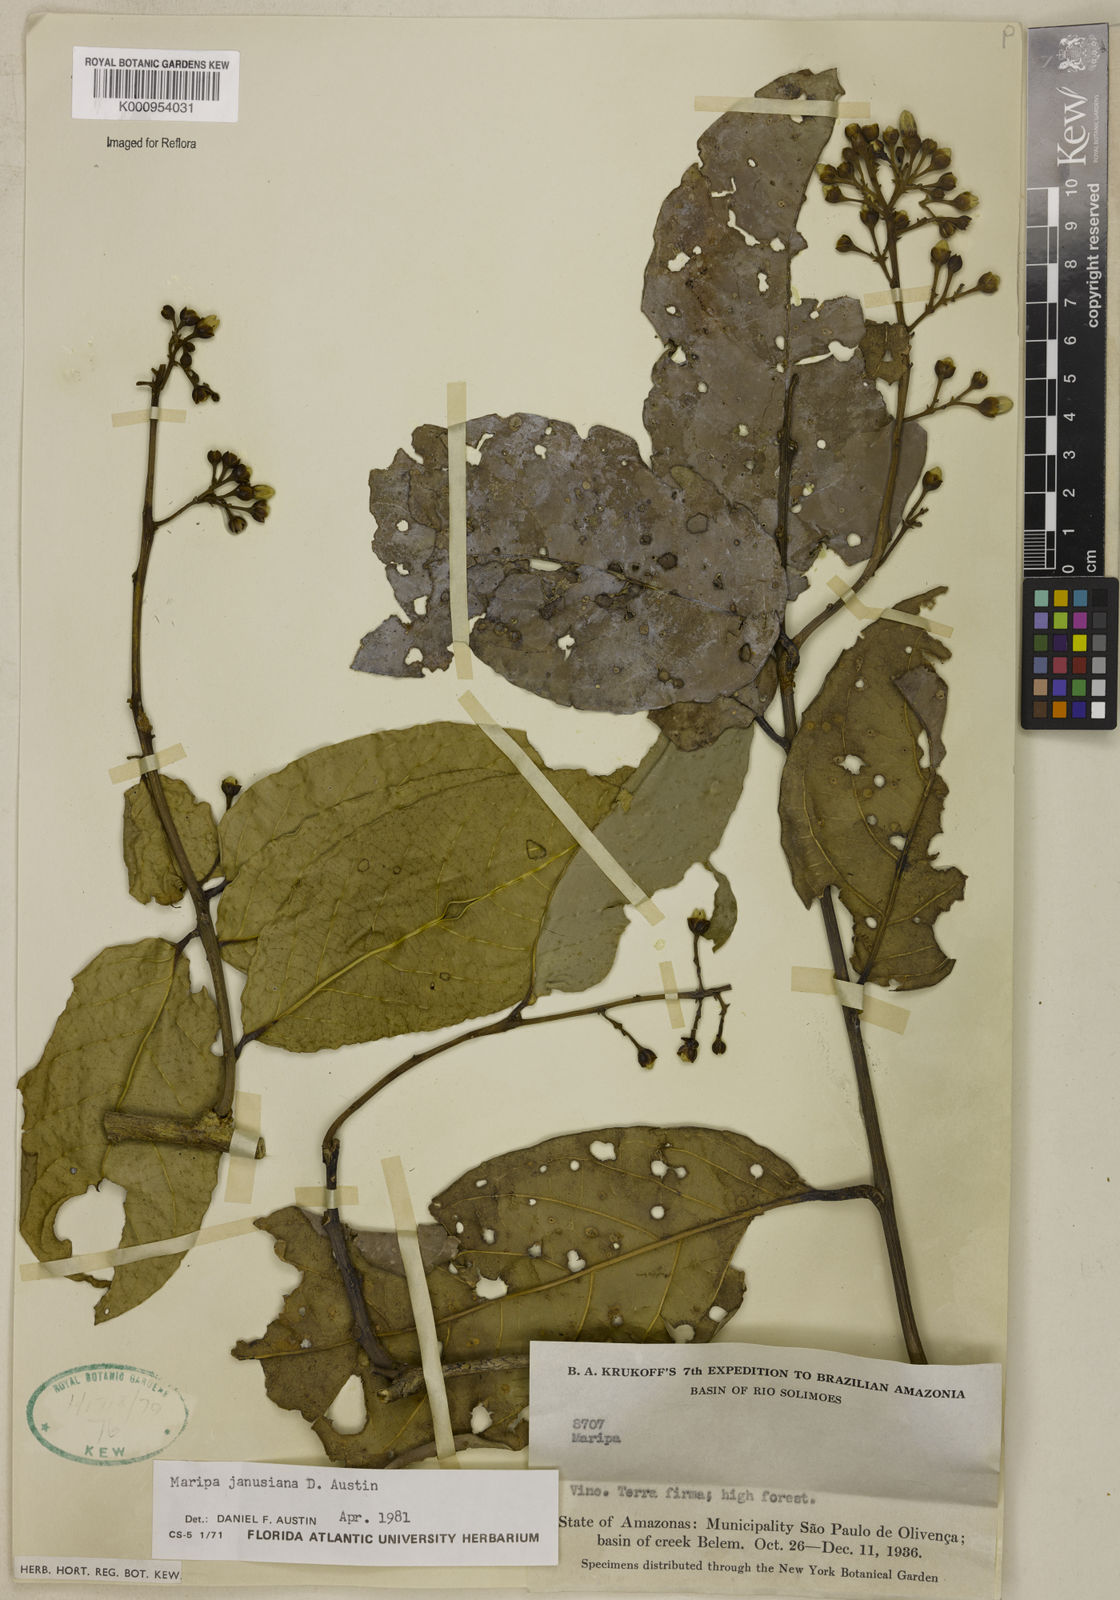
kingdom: Plantae
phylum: Tracheophyta
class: Magnoliopsida
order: Solanales
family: Convolvulaceae
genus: Maripa
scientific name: Maripa janusiana
